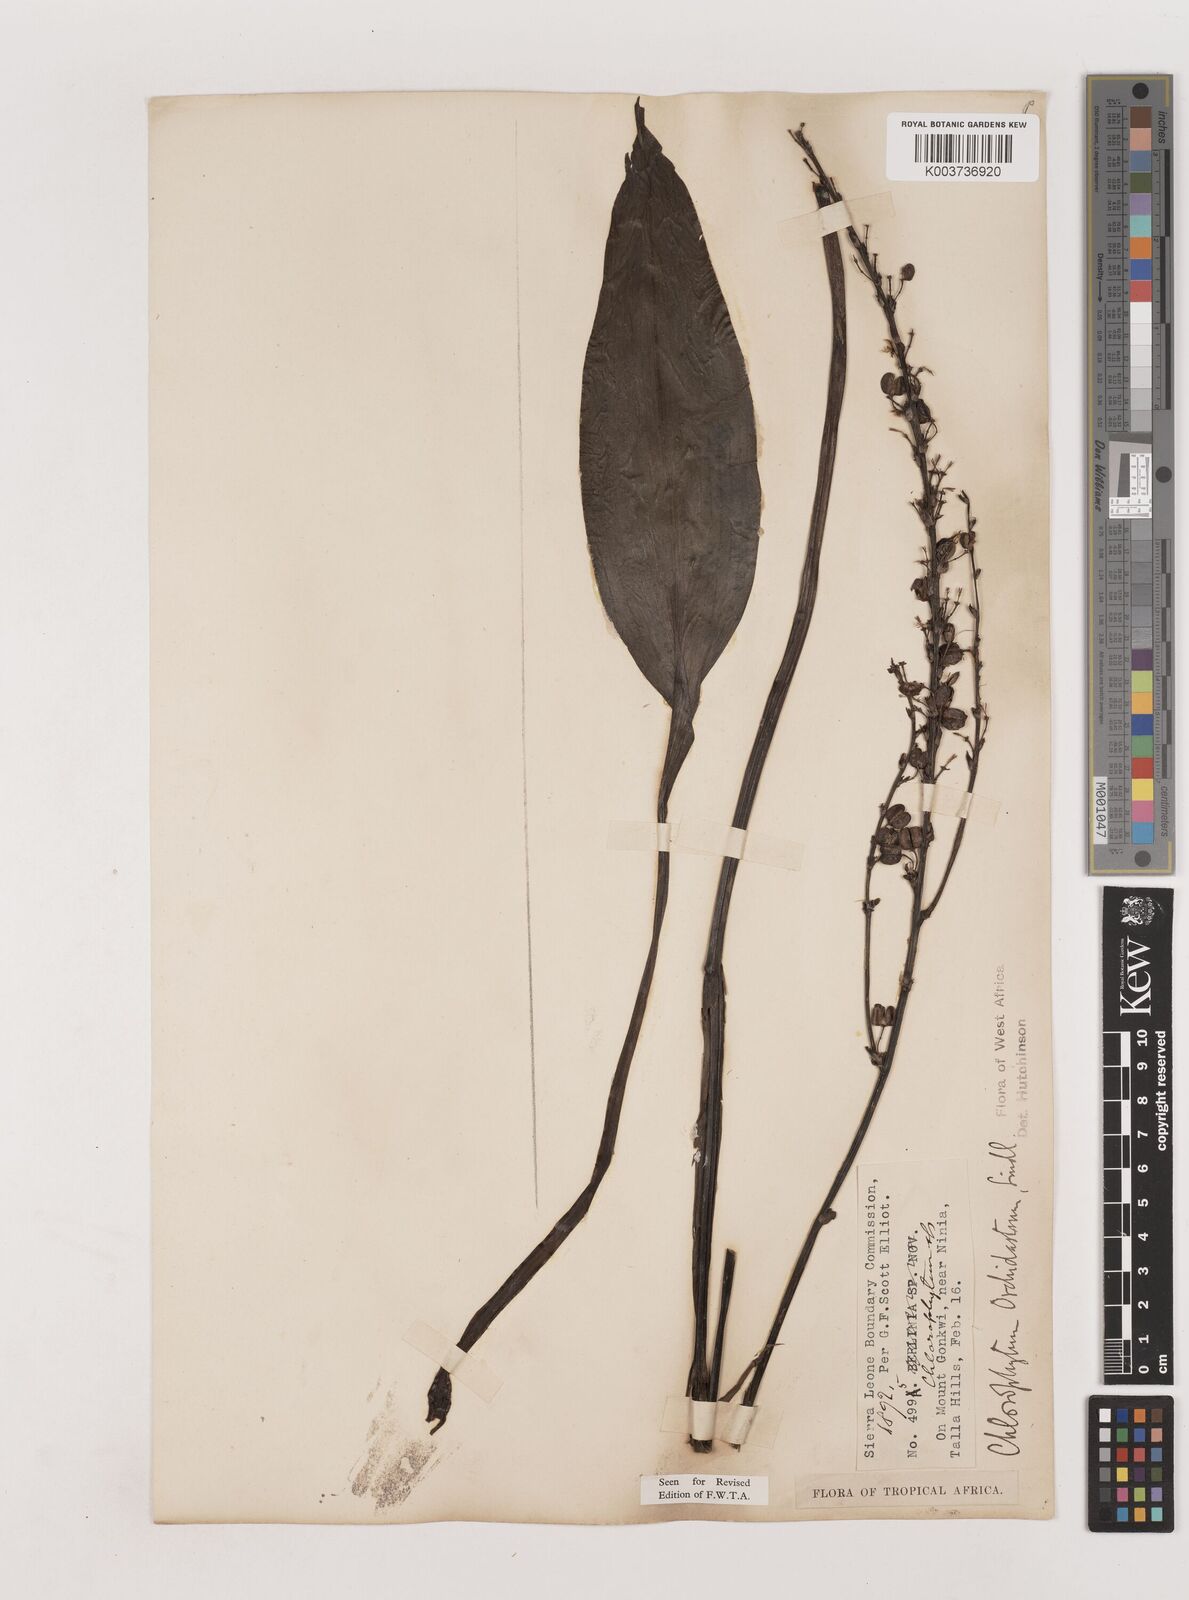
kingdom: Plantae
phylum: Tracheophyta
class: Liliopsida
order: Asparagales
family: Asparagaceae
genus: Chlorophytum
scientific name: Chlorophytum orchidastrum
